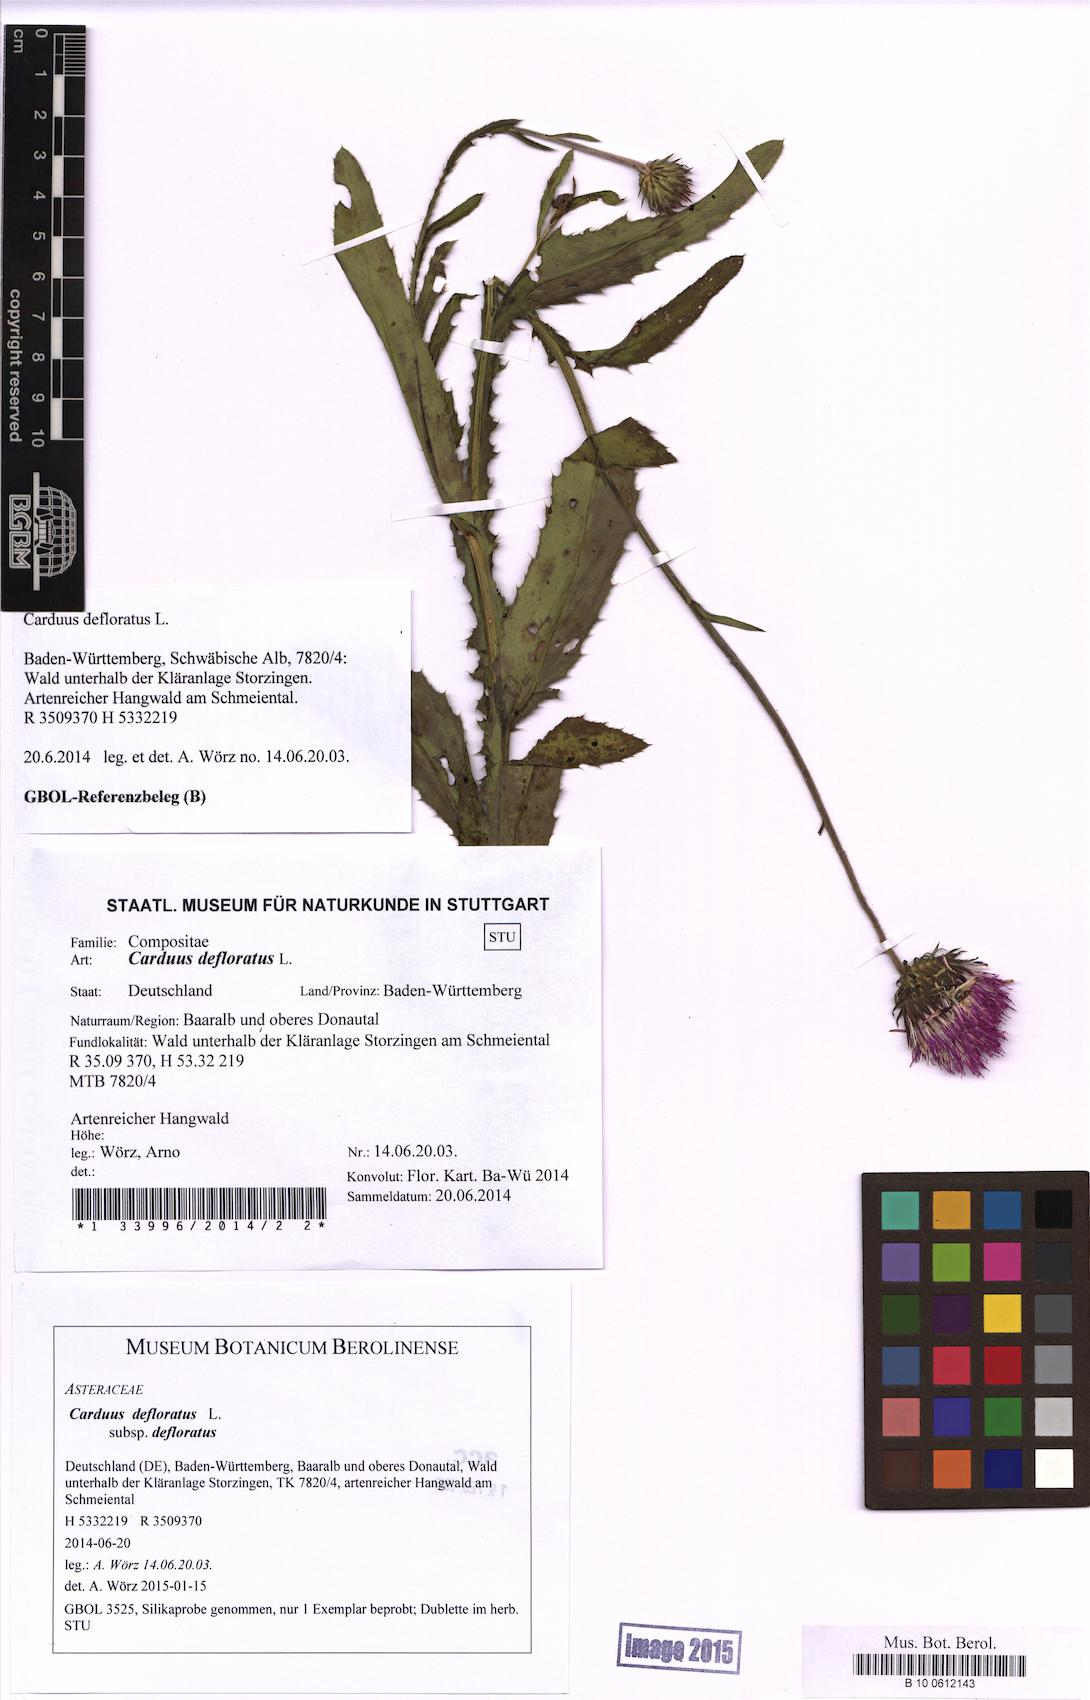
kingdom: Plantae
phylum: Tracheophyta
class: Magnoliopsida
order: Asterales
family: Asteraceae
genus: Carduus
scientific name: Carduus defloratus
